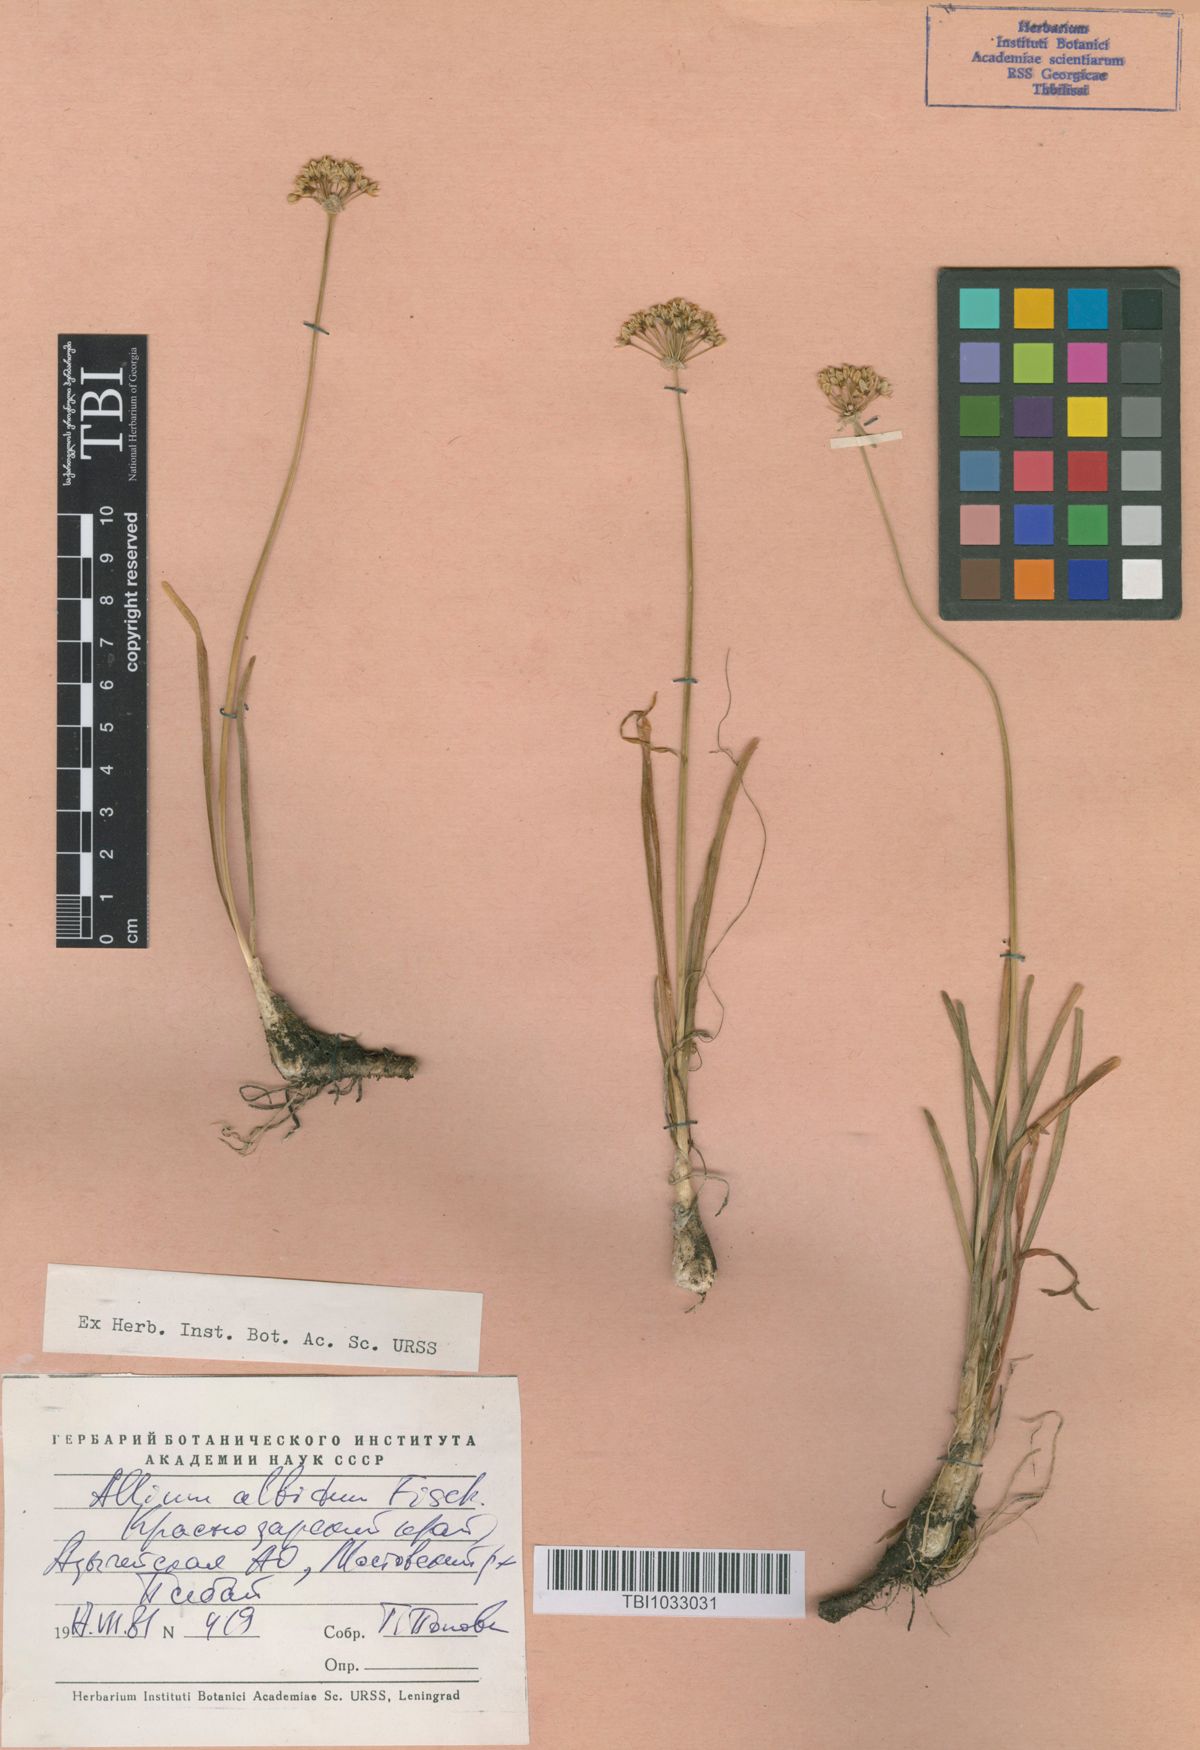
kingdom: Plantae
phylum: Tracheophyta
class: Liliopsida
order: Asparagales
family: Amaryllidaceae
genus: Allium
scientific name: Allium denudatum
